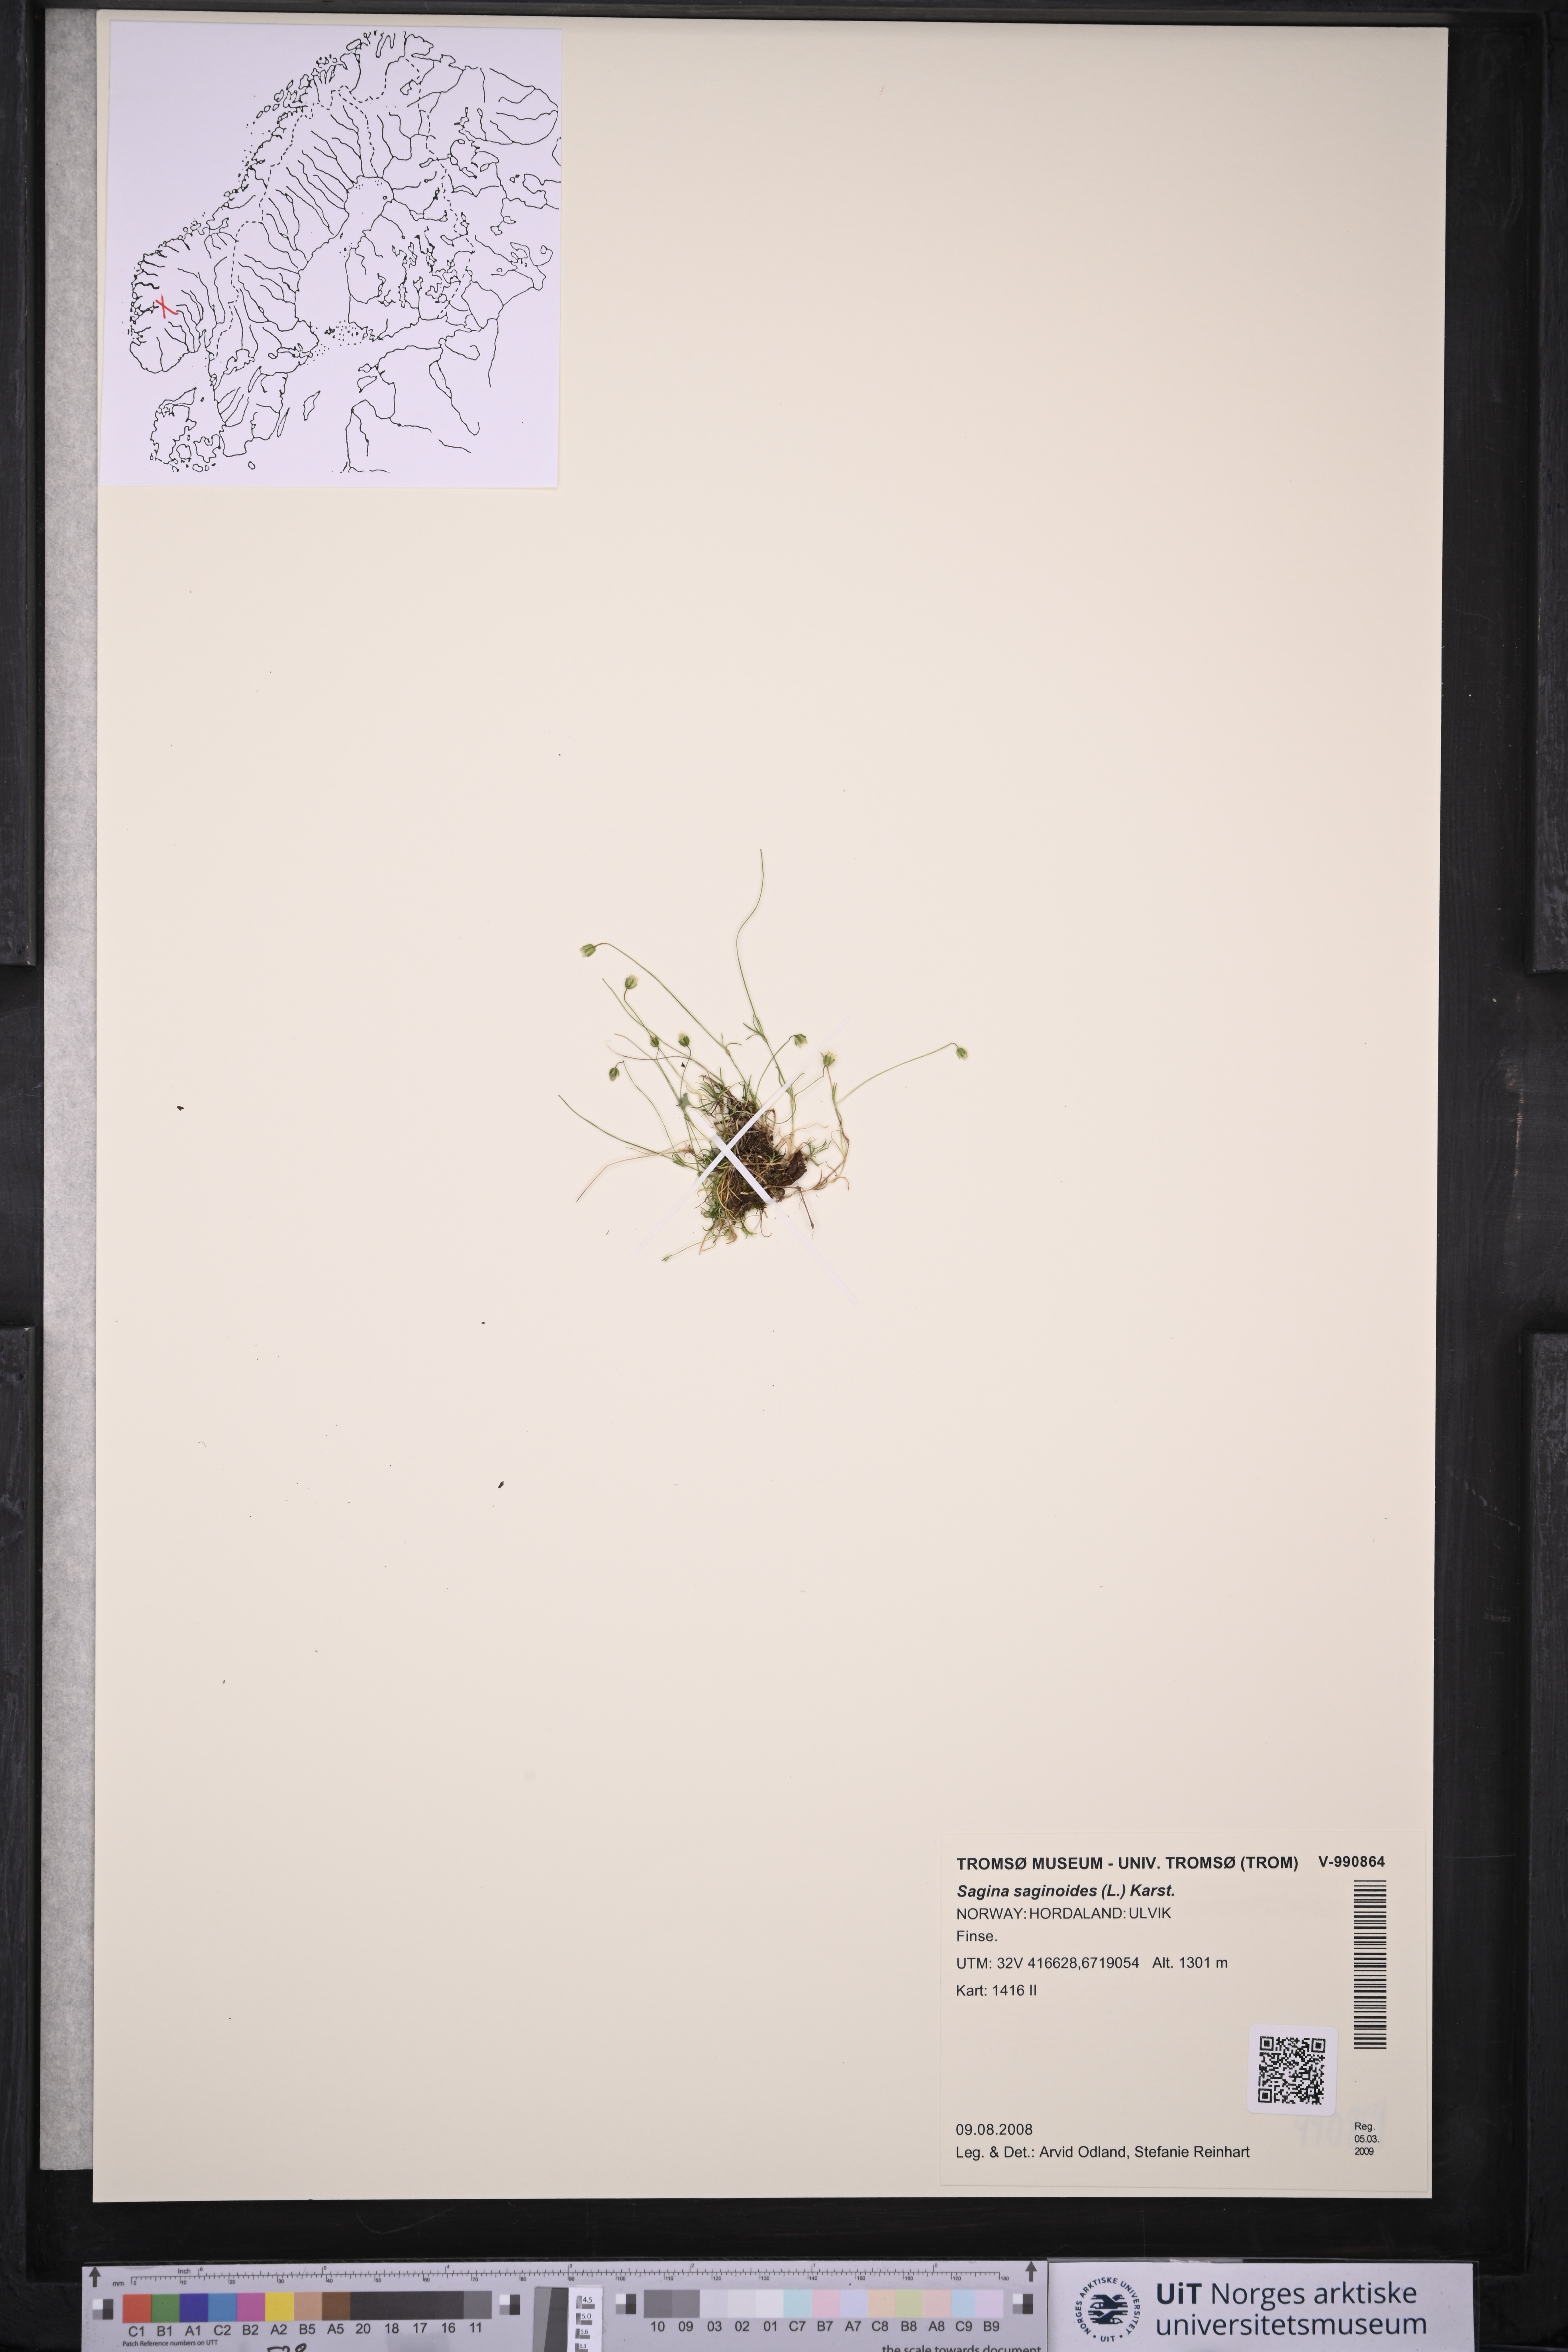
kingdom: Plantae
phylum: Tracheophyta
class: Magnoliopsida
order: Caryophyllales
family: Caryophyllaceae
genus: Sagina
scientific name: Sagina saginoides
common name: Alpine pearlwort
